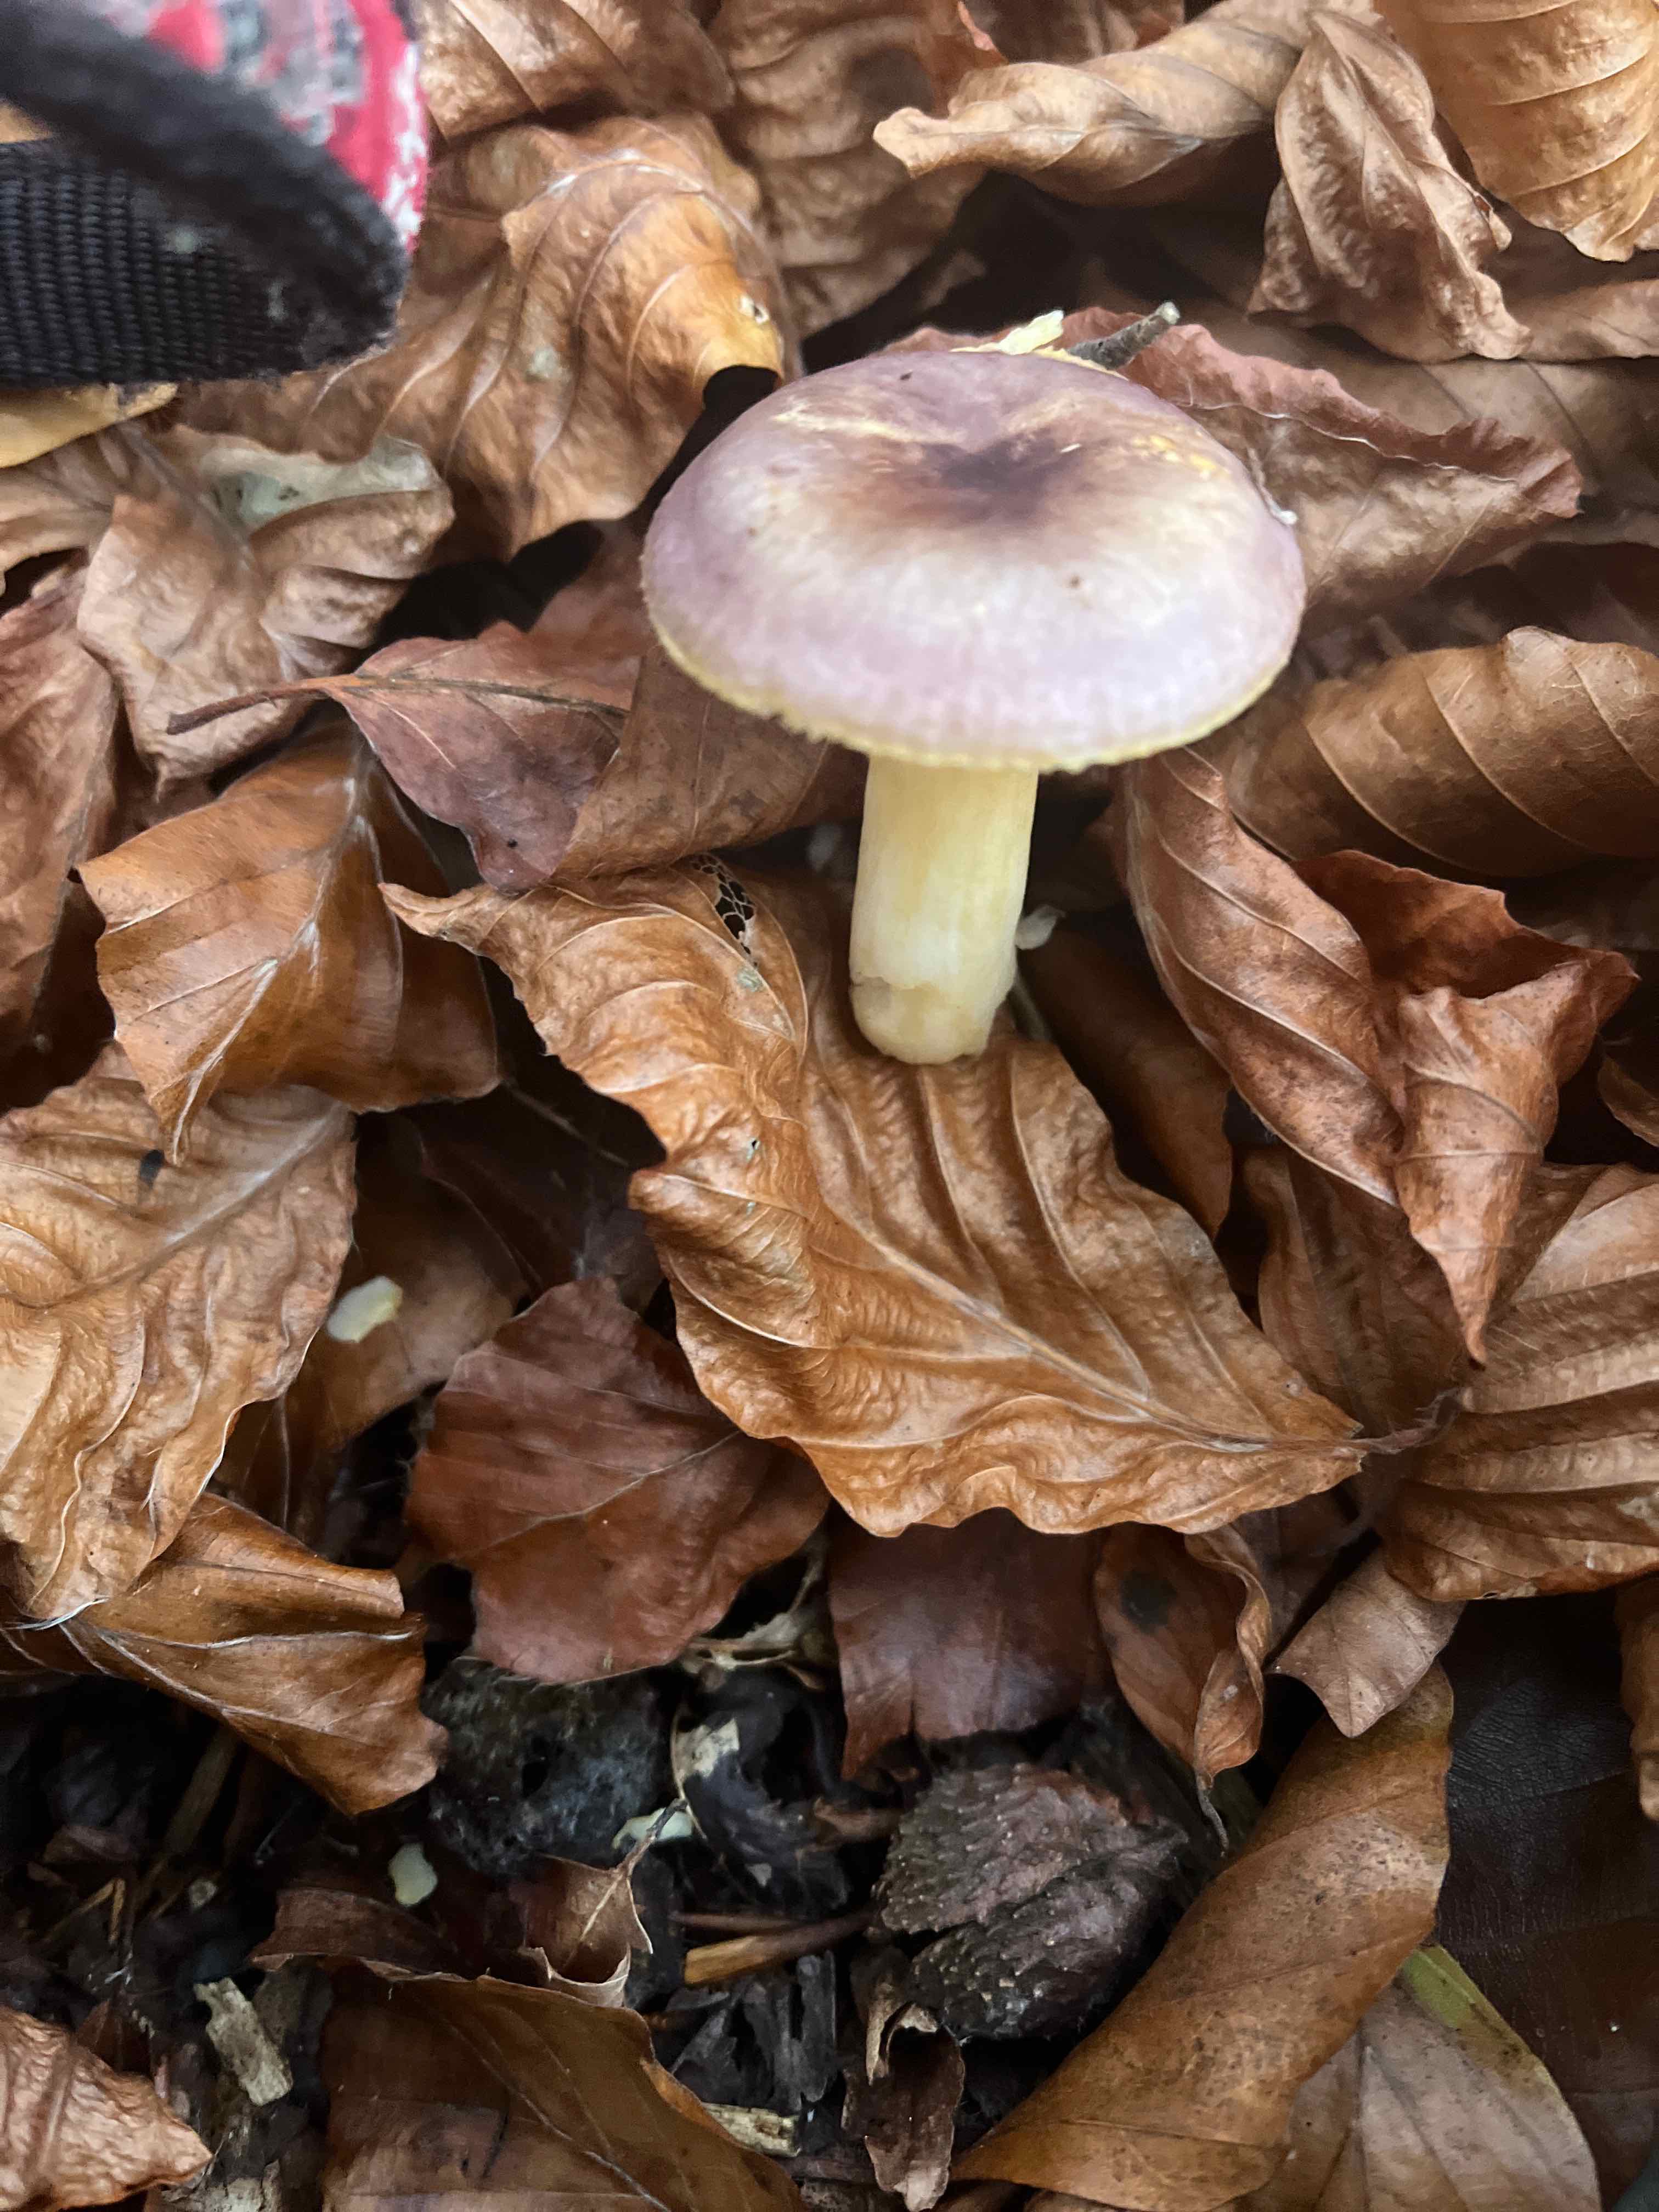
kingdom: Fungi
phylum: Basidiomycota
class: Agaricomycetes
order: Russulales
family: Russulaceae
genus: Russula
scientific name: Russula
